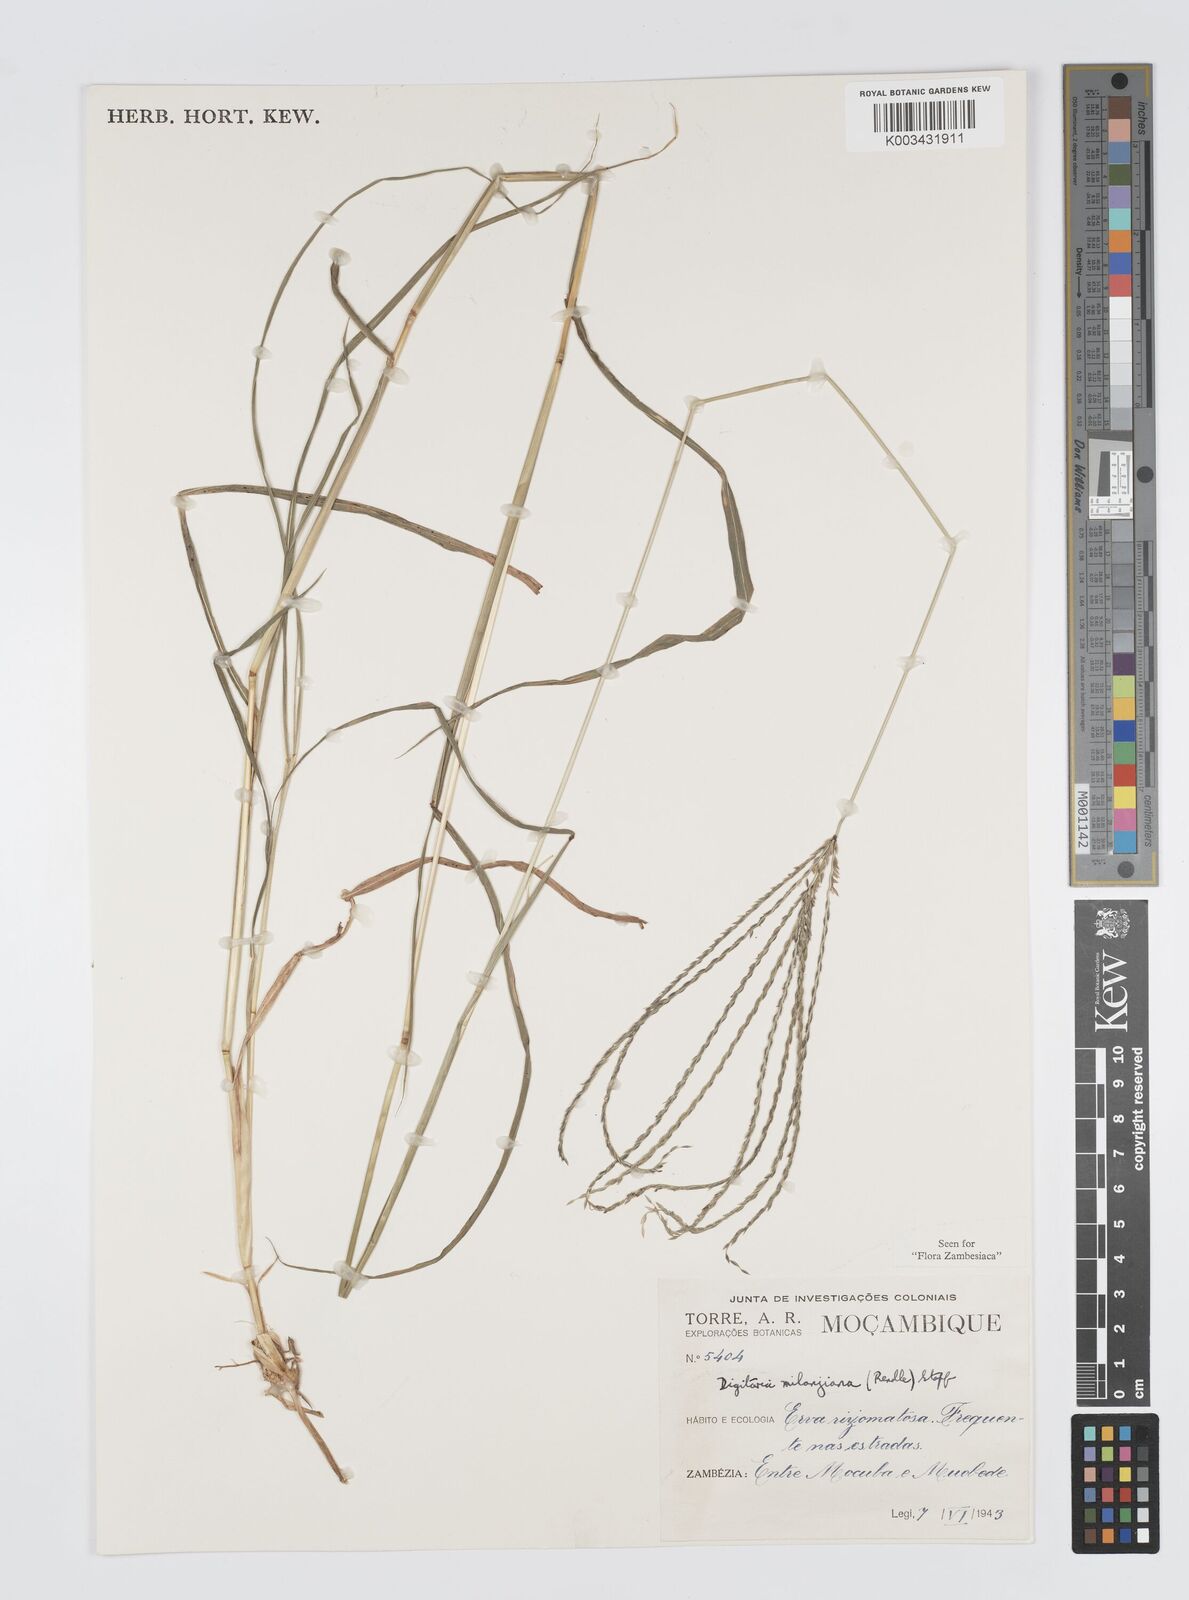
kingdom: Plantae
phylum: Tracheophyta
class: Liliopsida
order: Poales
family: Poaceae
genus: Digitaria
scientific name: Digitaria milanjiana
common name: Madagascar crabgrass
